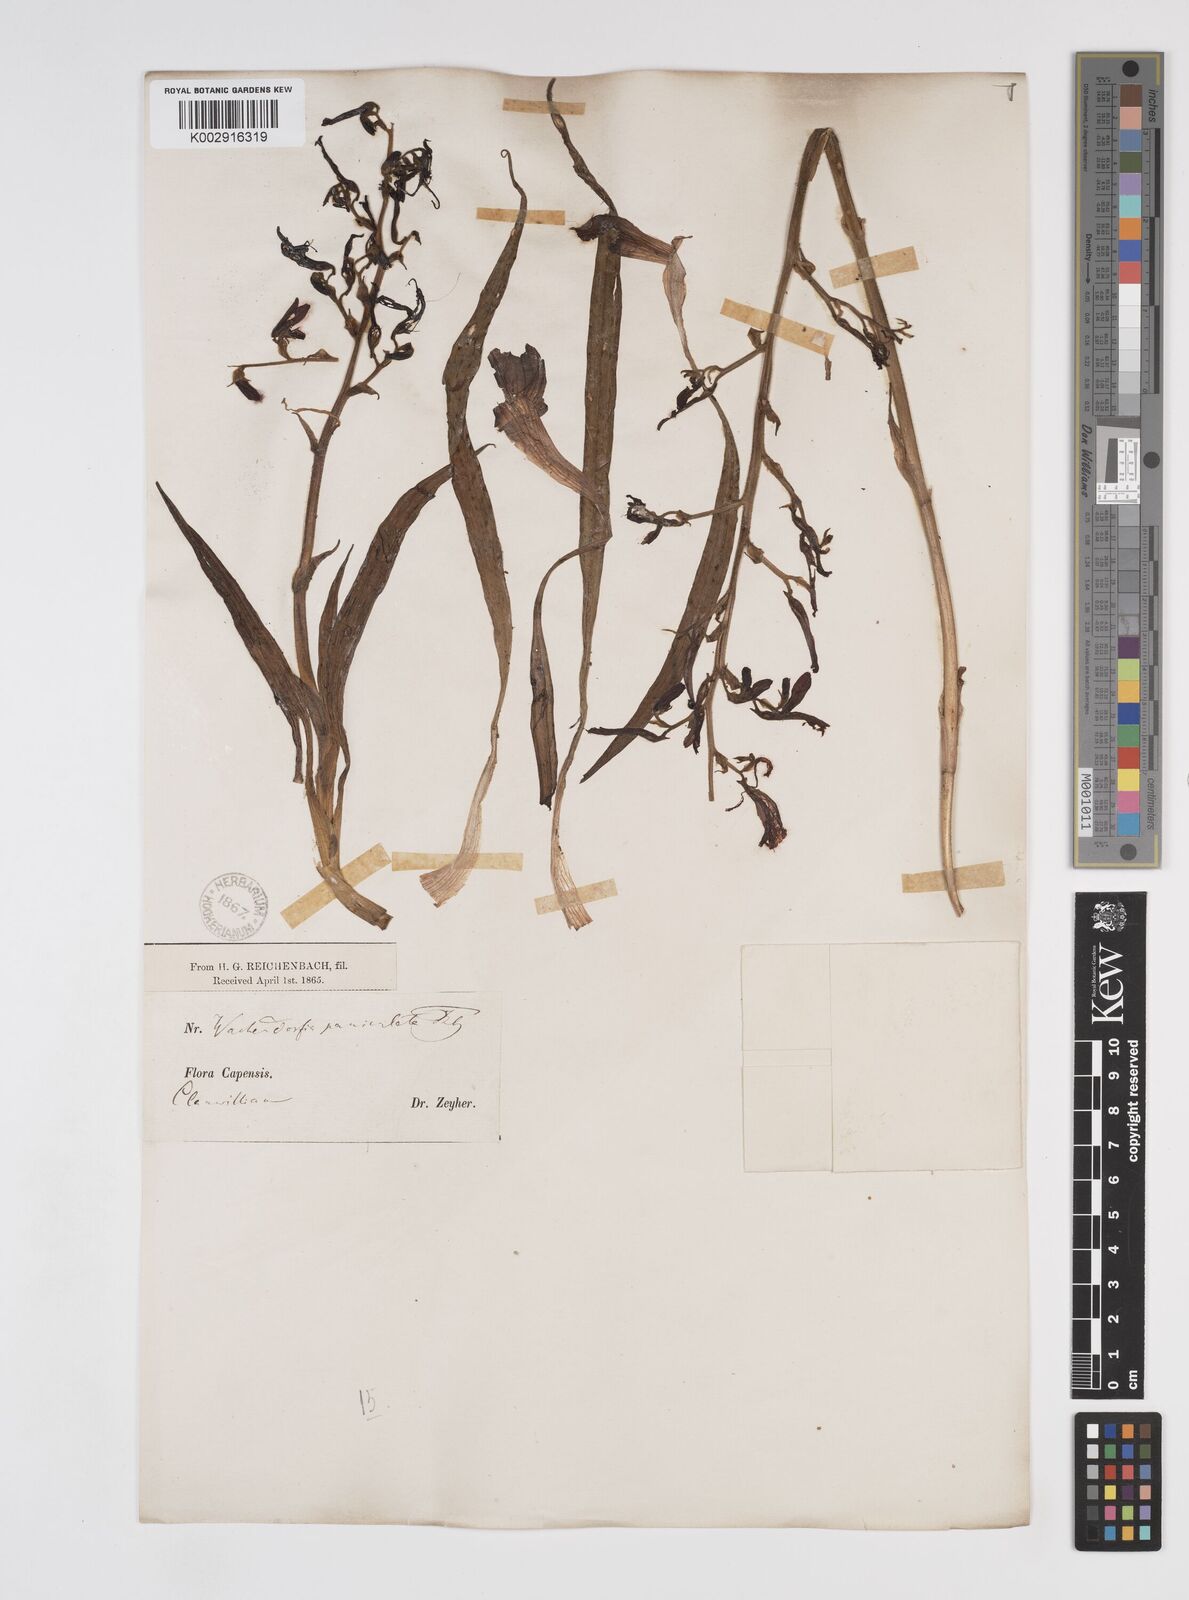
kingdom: Plantae
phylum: Tracheophyta
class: Liliopsida
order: Commelinales
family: Haemodoraceae
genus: Wachendorfia
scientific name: Wachendorfia paniculata
